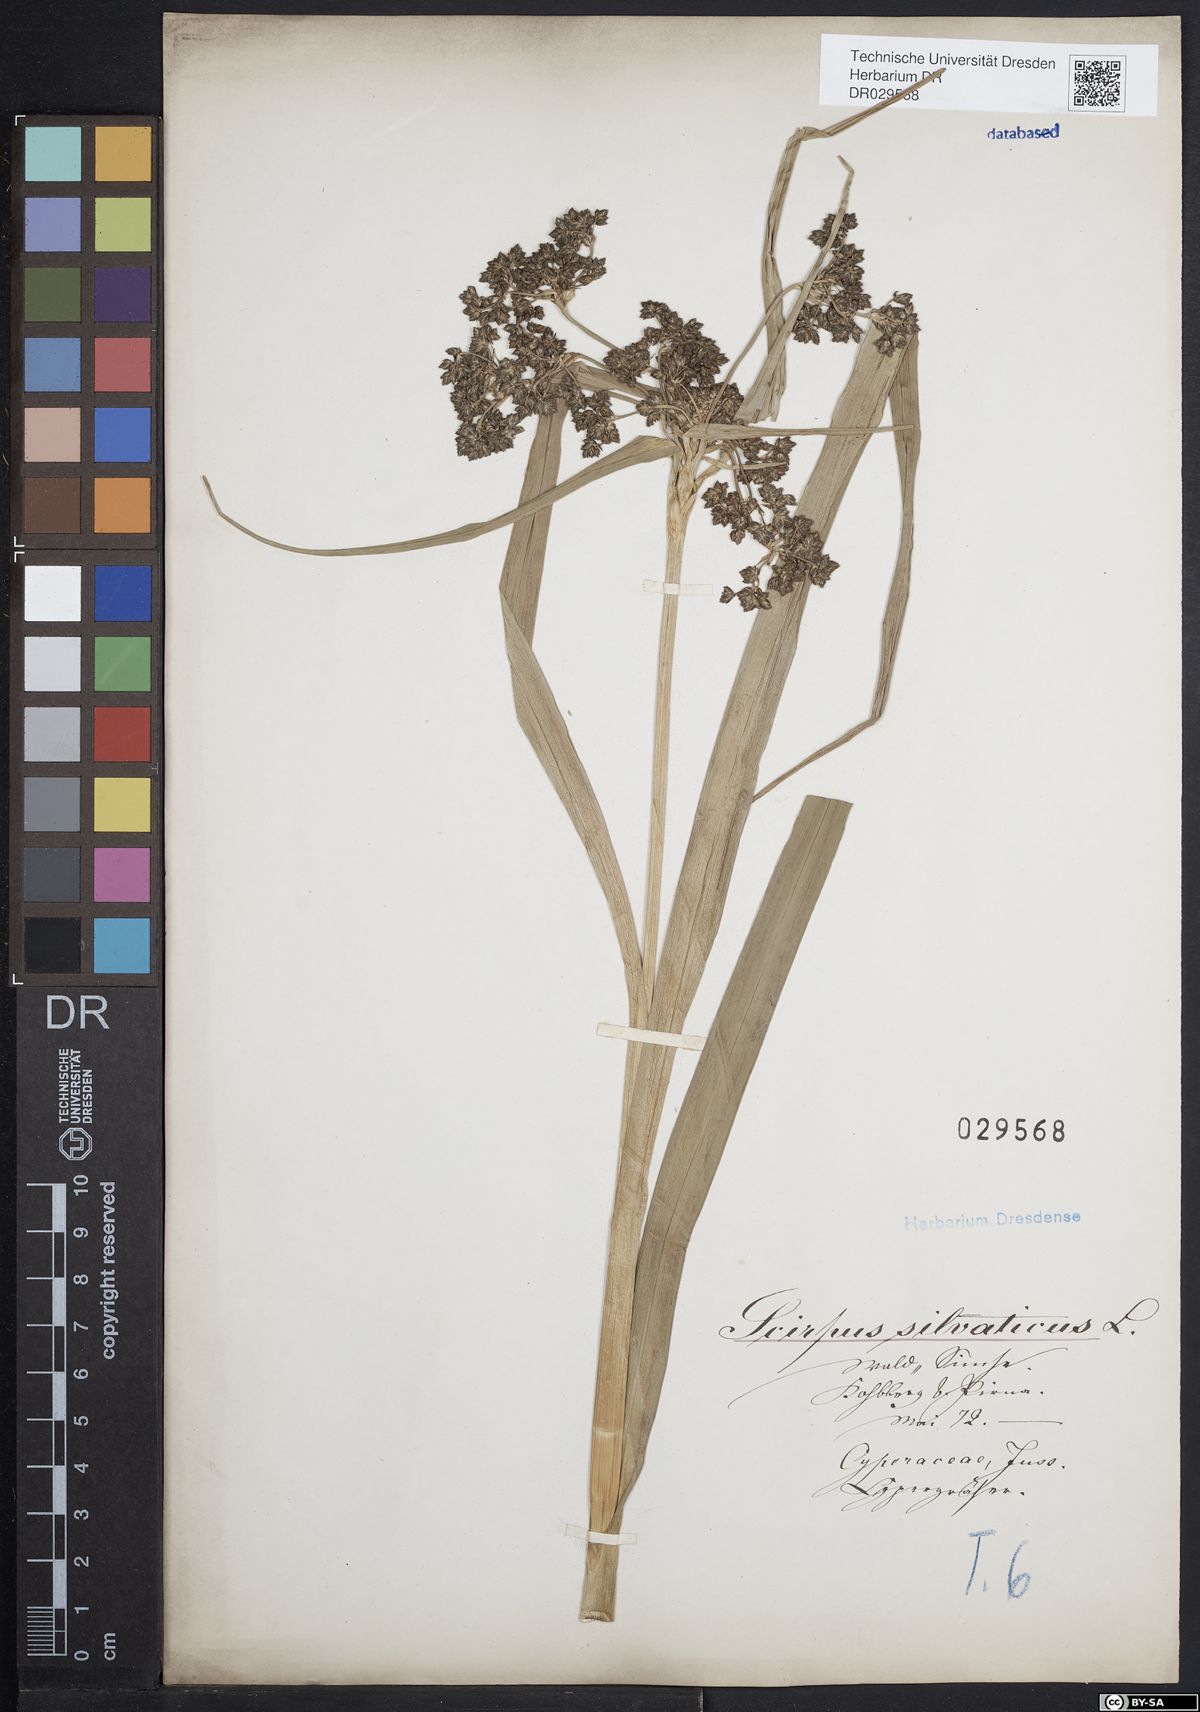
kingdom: Plantae
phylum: Tracheophyta
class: Liliopsida
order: Poales
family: Cyperaceae
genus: Scirpus
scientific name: Scirpus sylvaticus
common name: Wood club-rush
